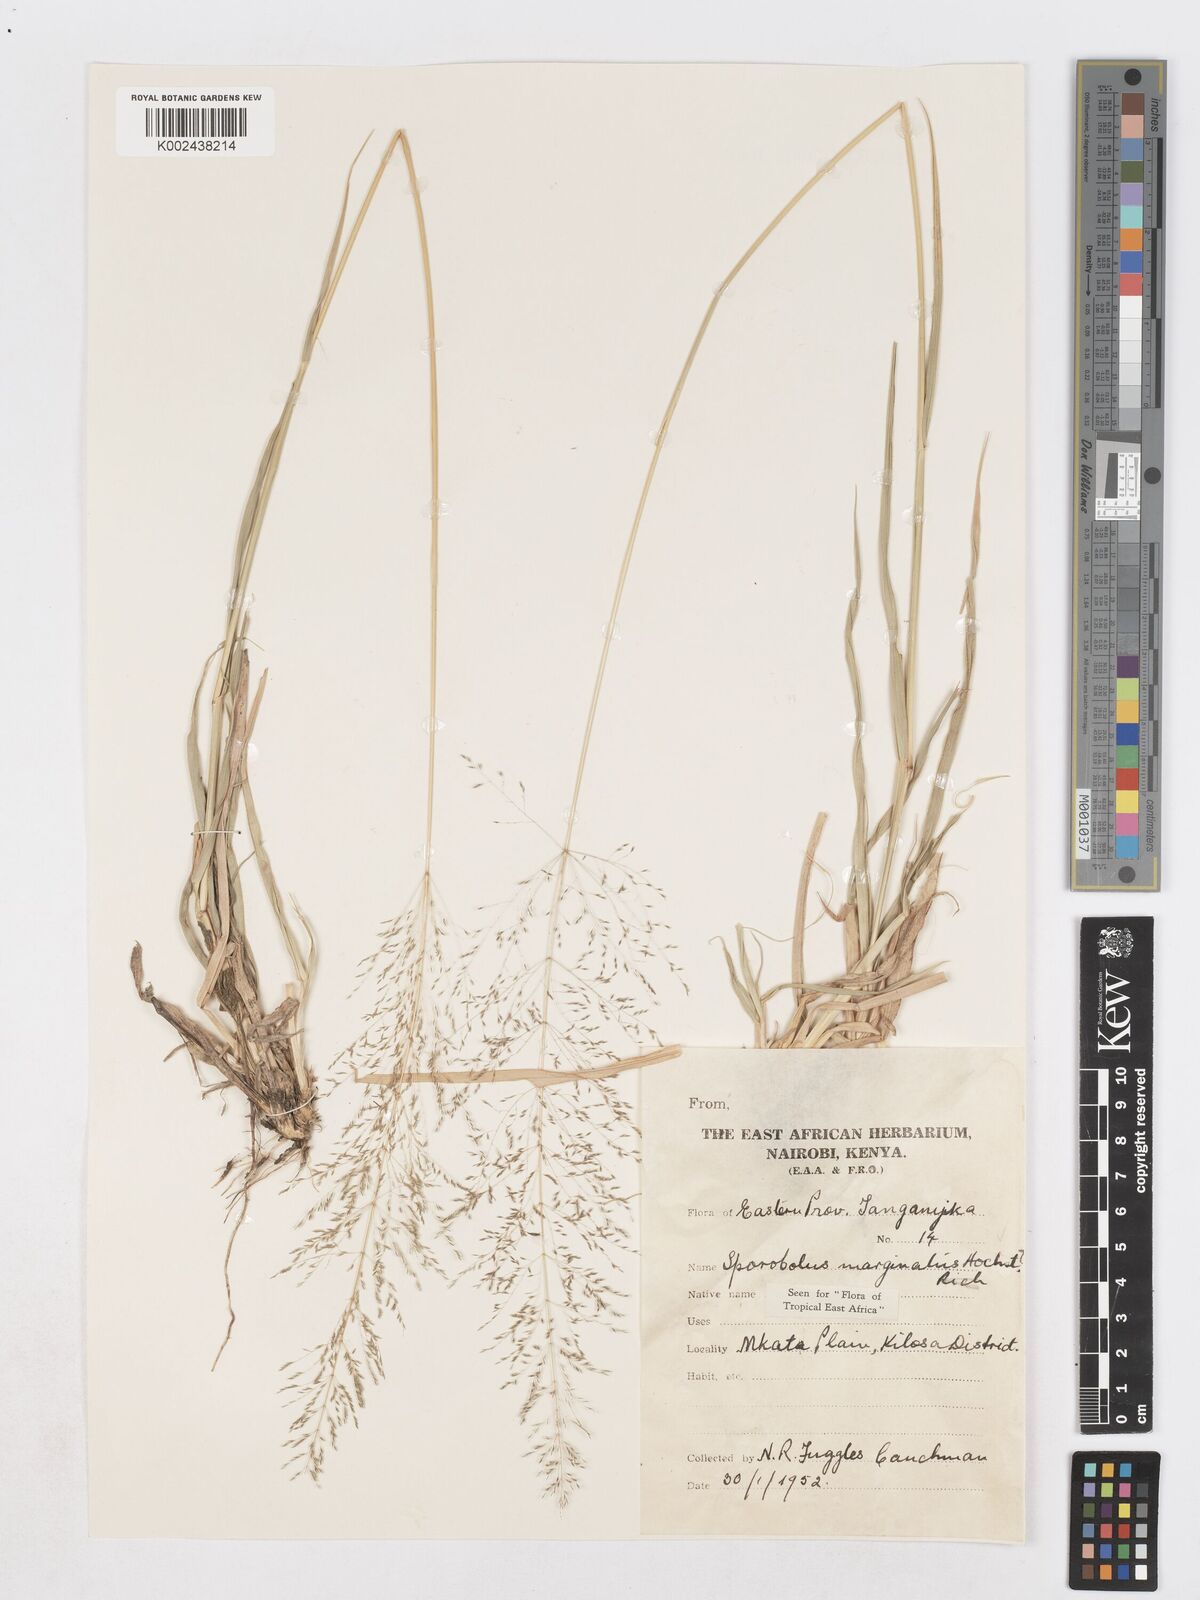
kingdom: Plantae
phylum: Tracheophyta
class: Liliopsida
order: Poales
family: Poaceae
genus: Sporobolus
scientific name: Sporobolus ioclados
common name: Pan dropseed
